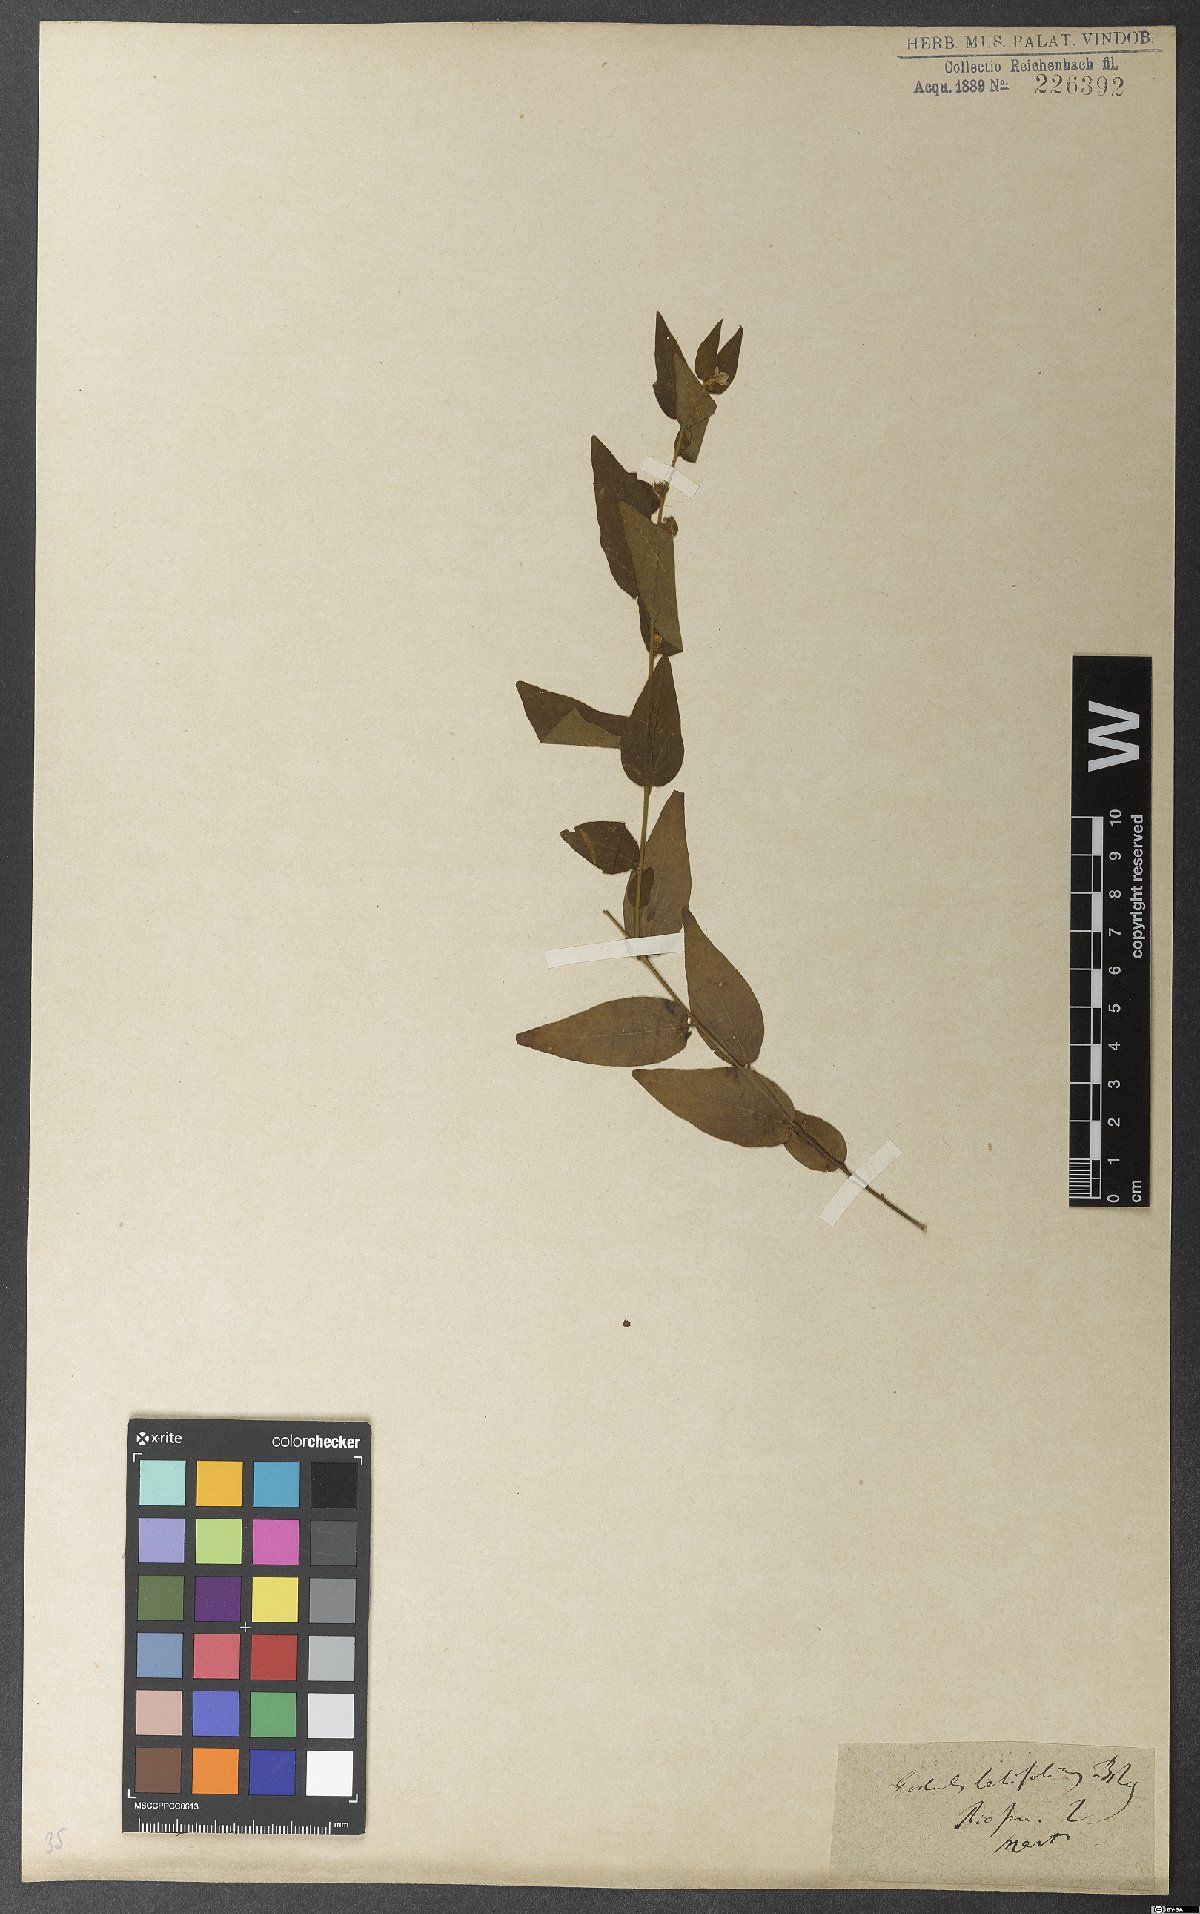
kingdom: Plantae
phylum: Tracheophyta
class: Magnoliopsida
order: Solanales
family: Convolvulaceae
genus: Evolvulus
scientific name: Evolvulus latifolius
